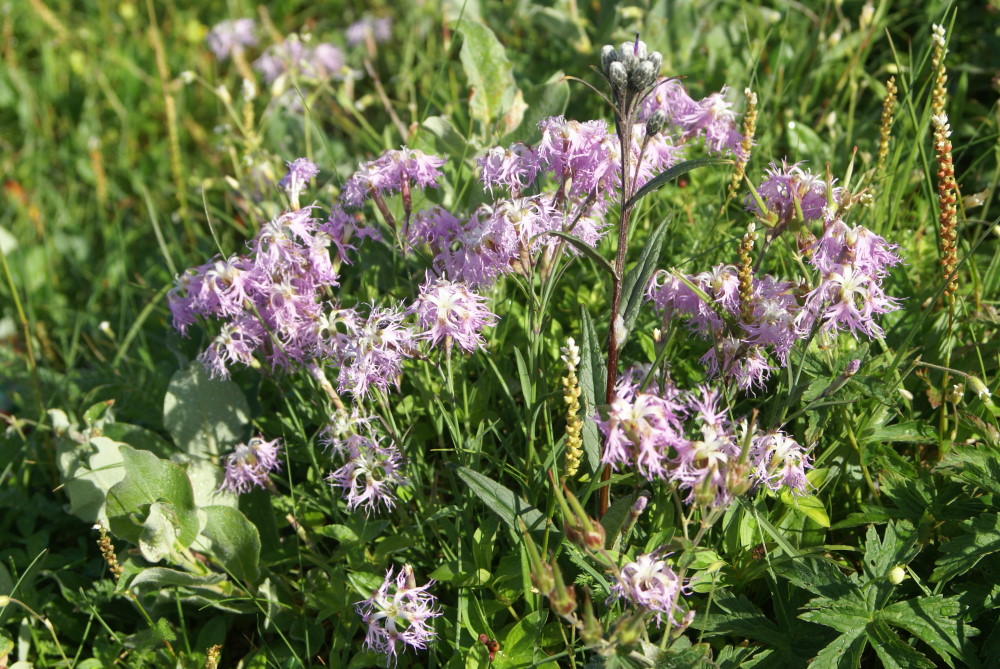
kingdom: Plantae
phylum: Tracheophyta
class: Magnoliopsida
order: Caryophyllales
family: Caryophyllaceae
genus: Dianthus
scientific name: Dianthus superbus
